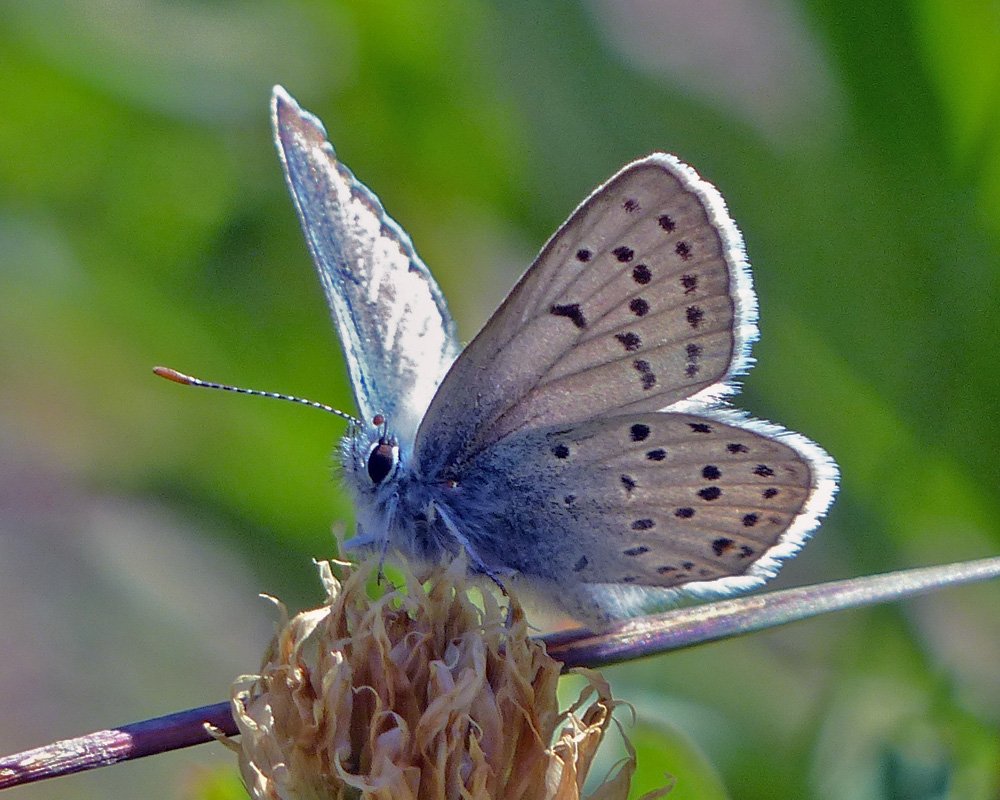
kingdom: Animalia
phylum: Arthropoda
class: Insecta
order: Lepidoptera
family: Lycaenidae
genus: Plebejus
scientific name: Plebejus saepiolus
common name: Greenish Blue
